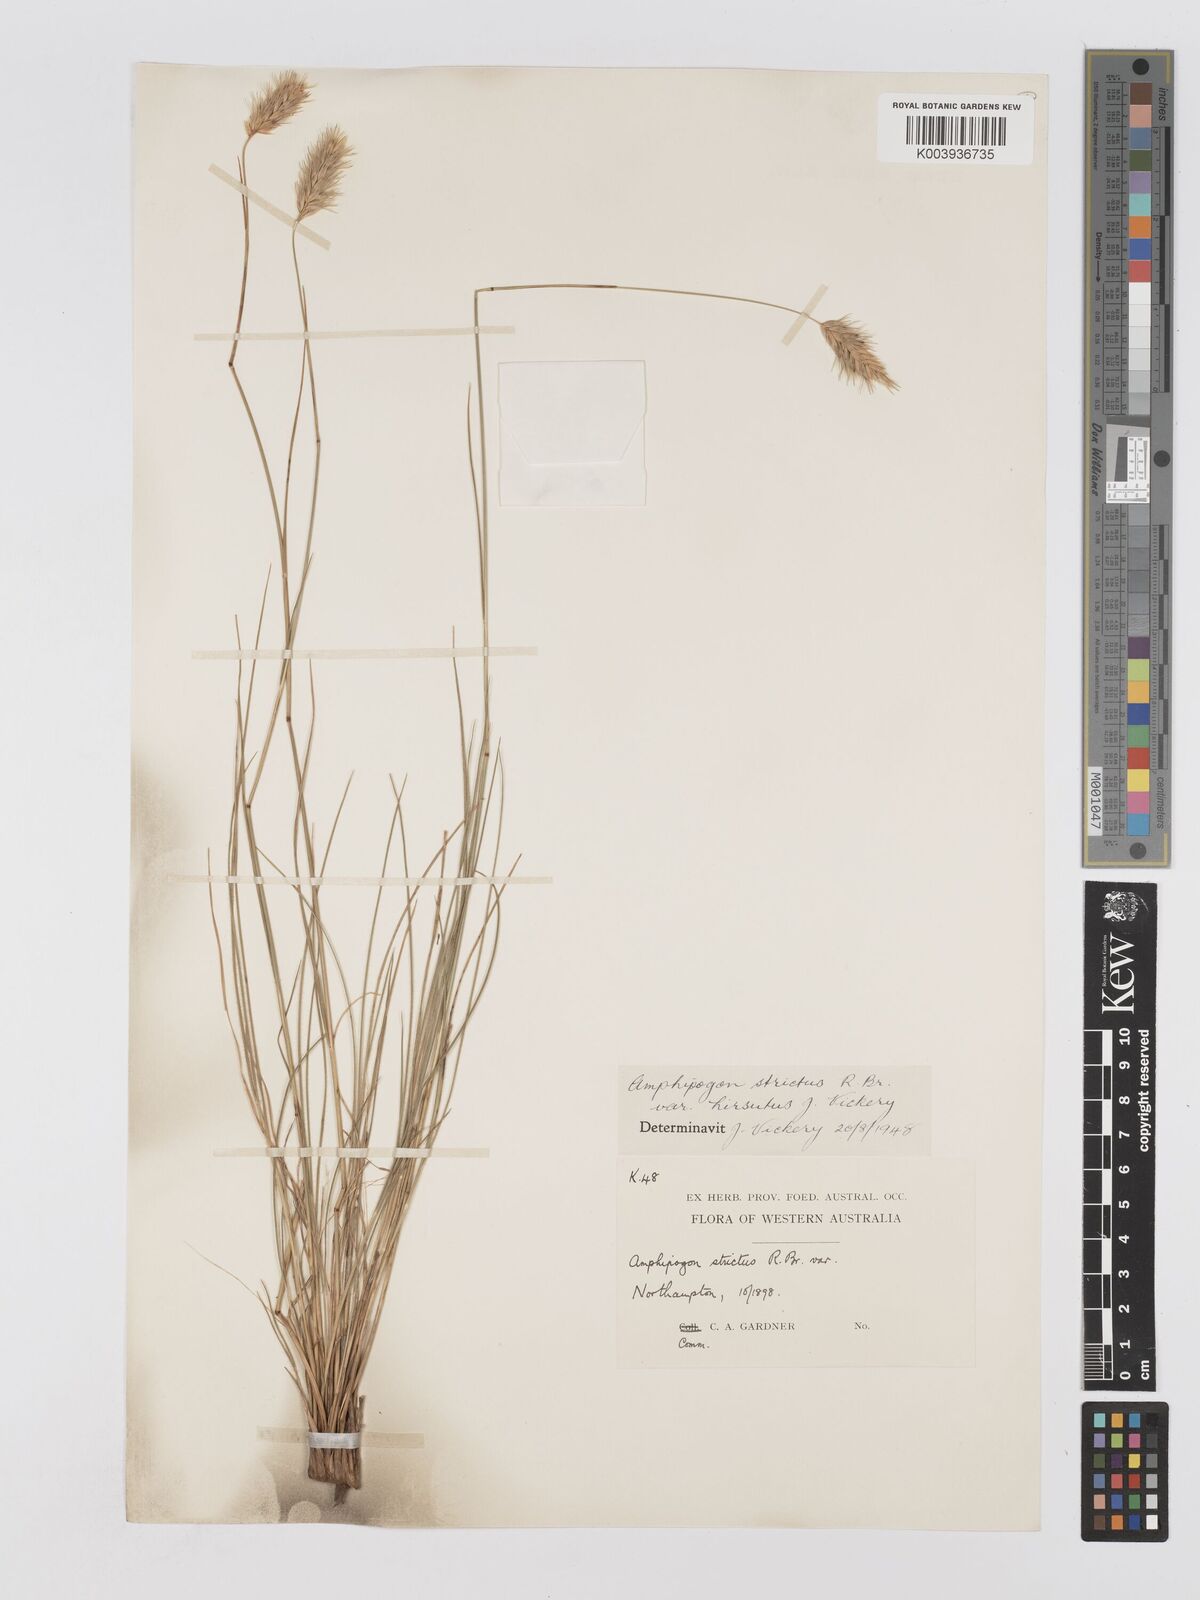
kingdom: Plantae
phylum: Tracheophyta
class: Liliopsida
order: Poales
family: Poaceae
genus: Amphipogon
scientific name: Amphipogon strictus
